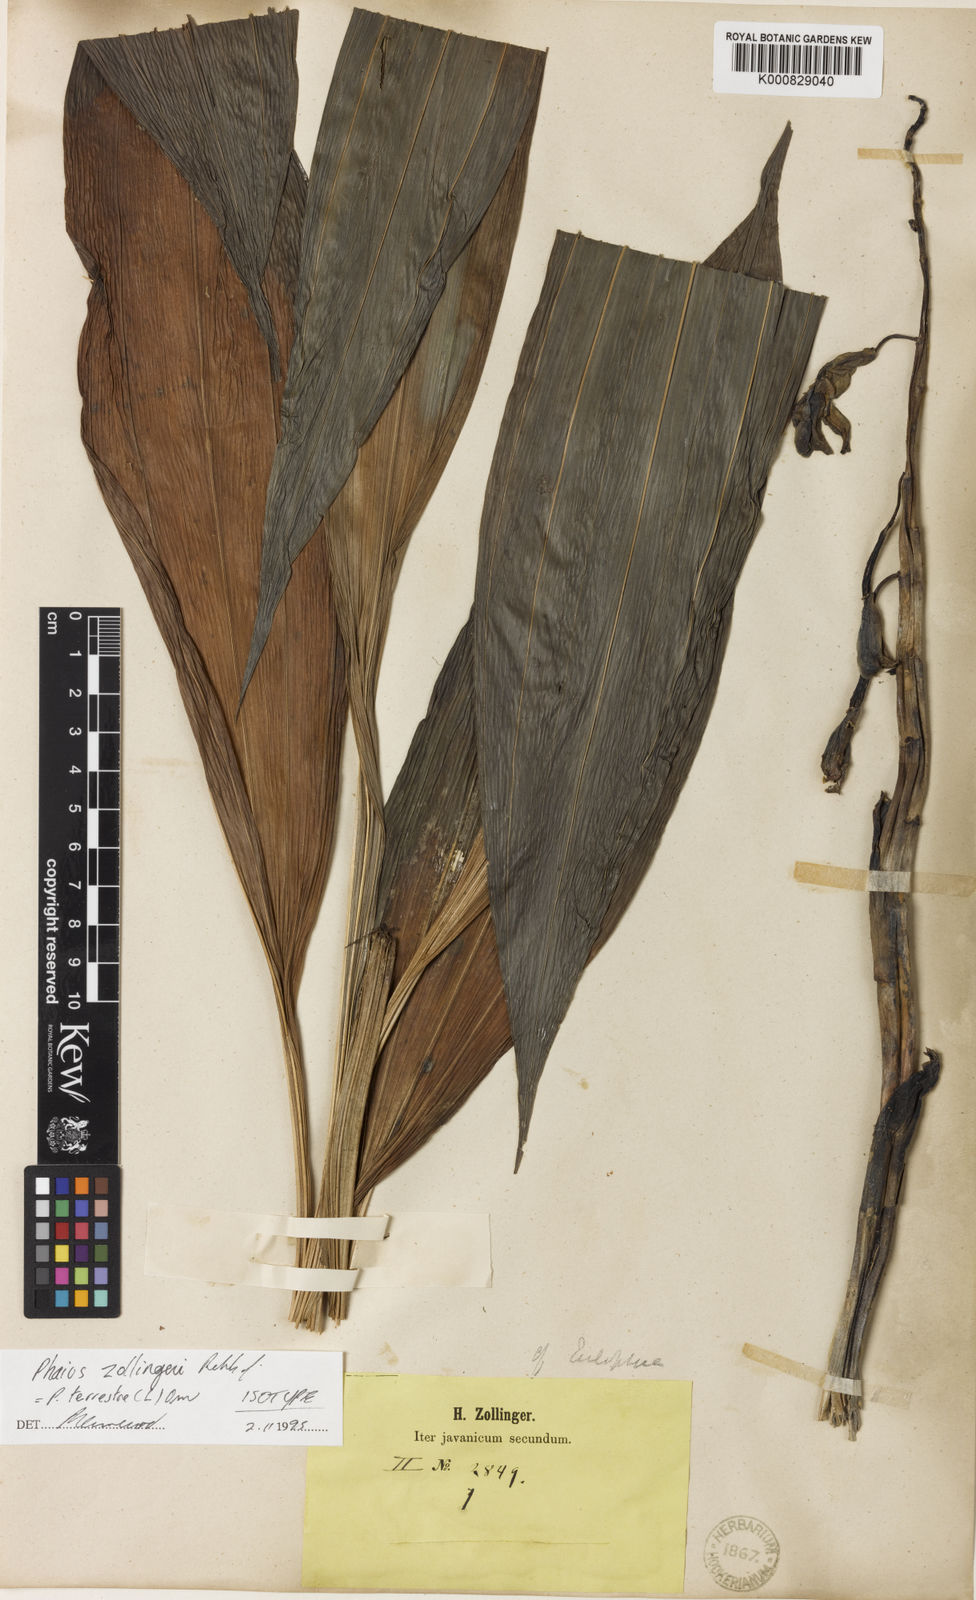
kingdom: Plantae
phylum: Tracheophyta
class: Liliopsida
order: Asparagales
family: Orchidaceae
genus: Calanthe
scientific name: Calanthe amboinensis
